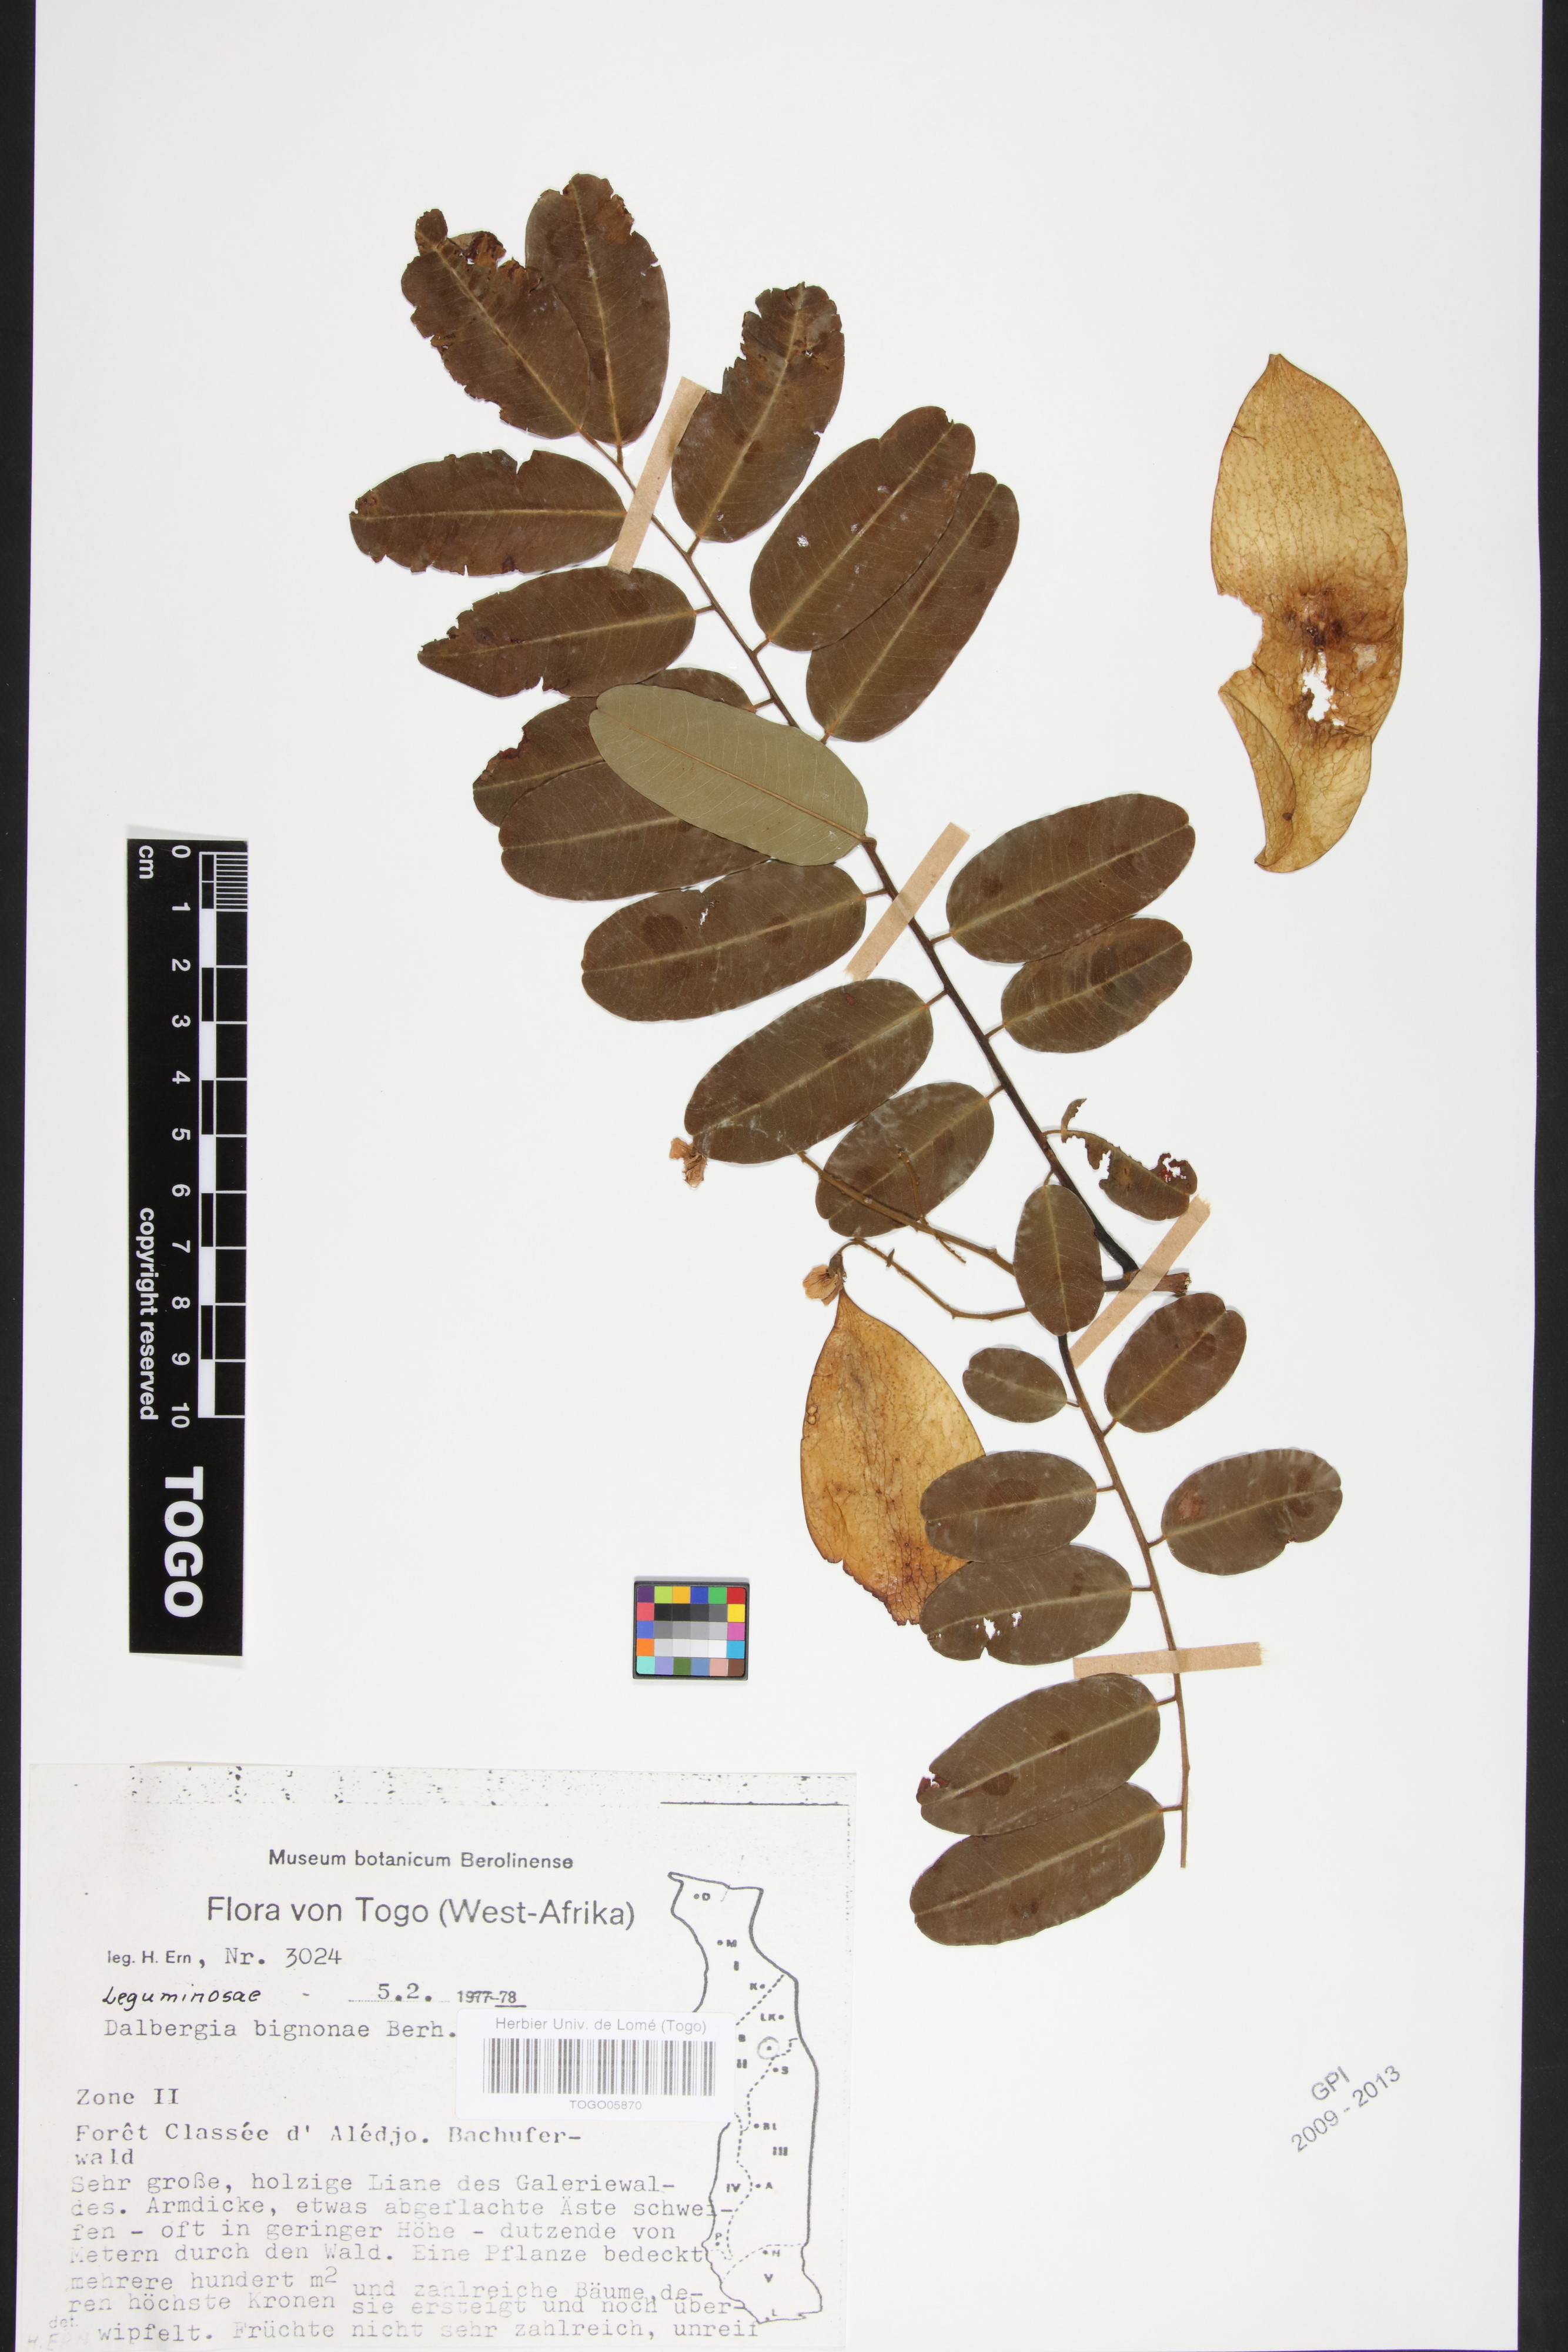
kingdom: Plantae
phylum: Tracheophyta
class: Magnoliopsida
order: Fabales
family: Fabaceae
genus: Dalbergia
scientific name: Dalbergia mayumbensis
